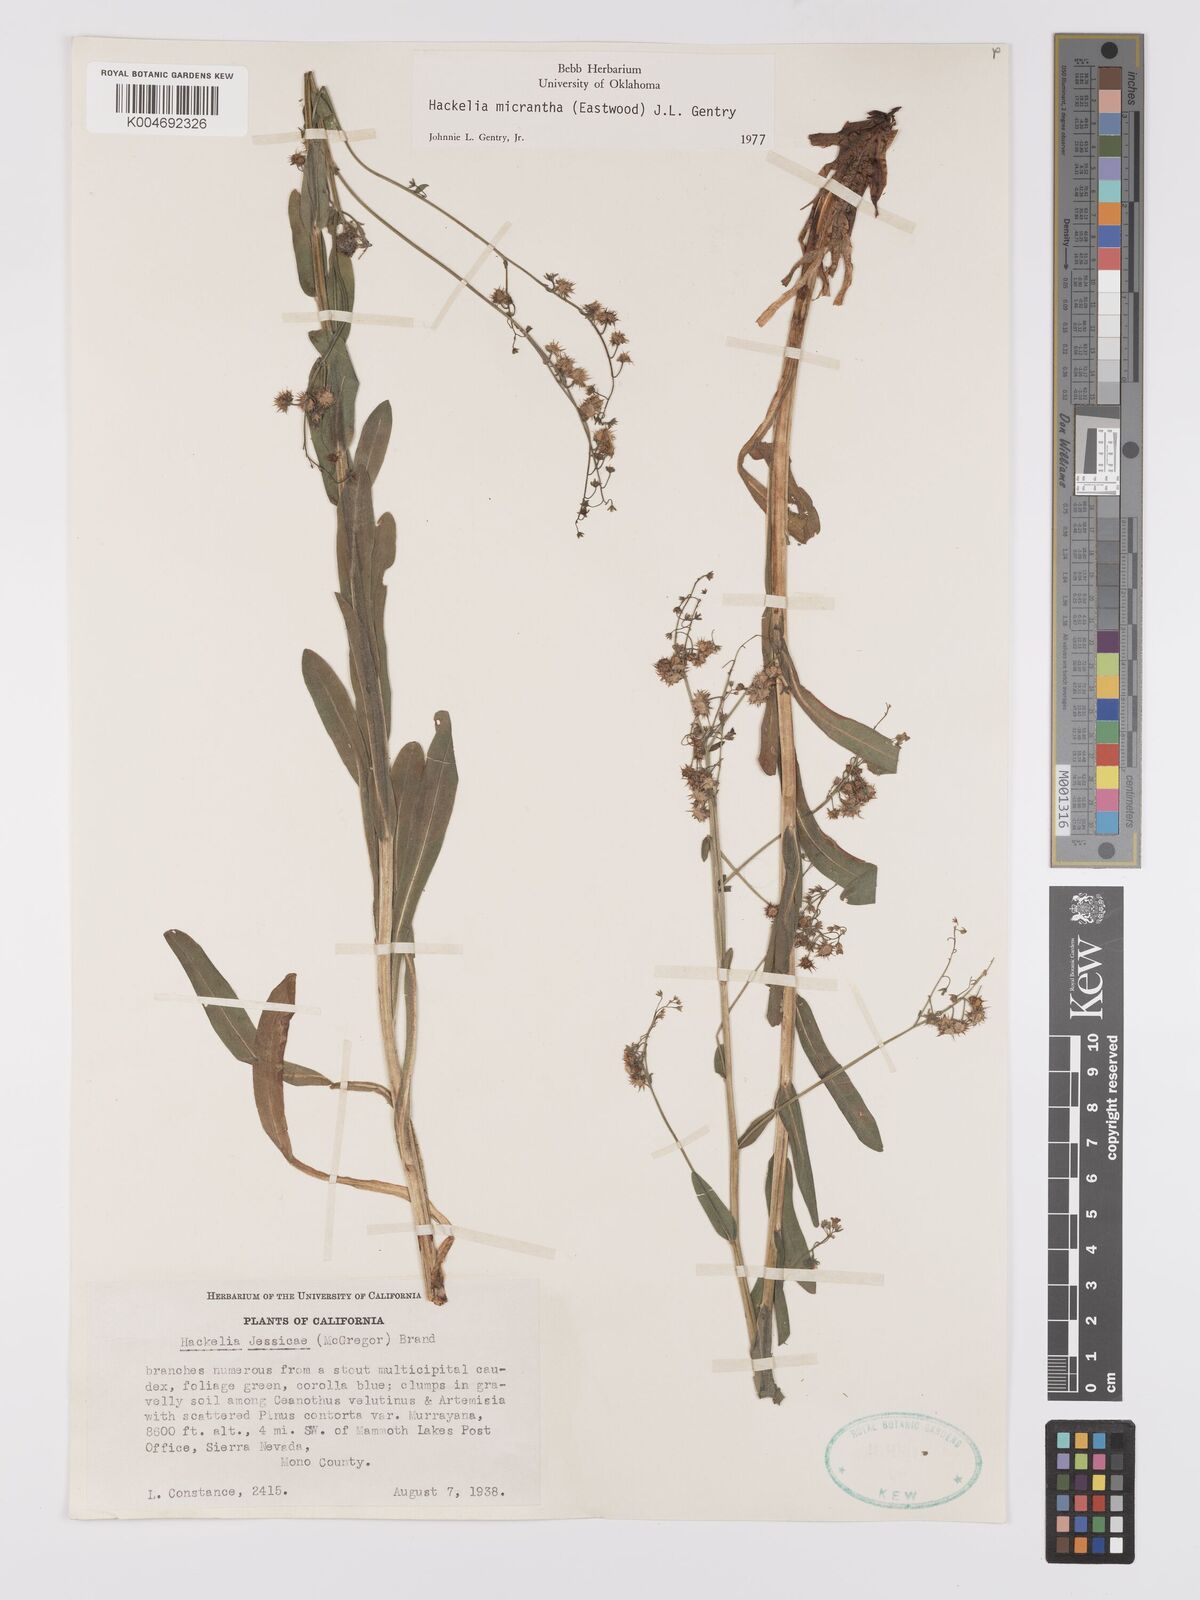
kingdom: Plantae
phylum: Tracheophyta
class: Magnoliopsida
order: Boraginales
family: Boraginaceae
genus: Hackelia
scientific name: Hackelia micrantha
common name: Meadow stickseed
